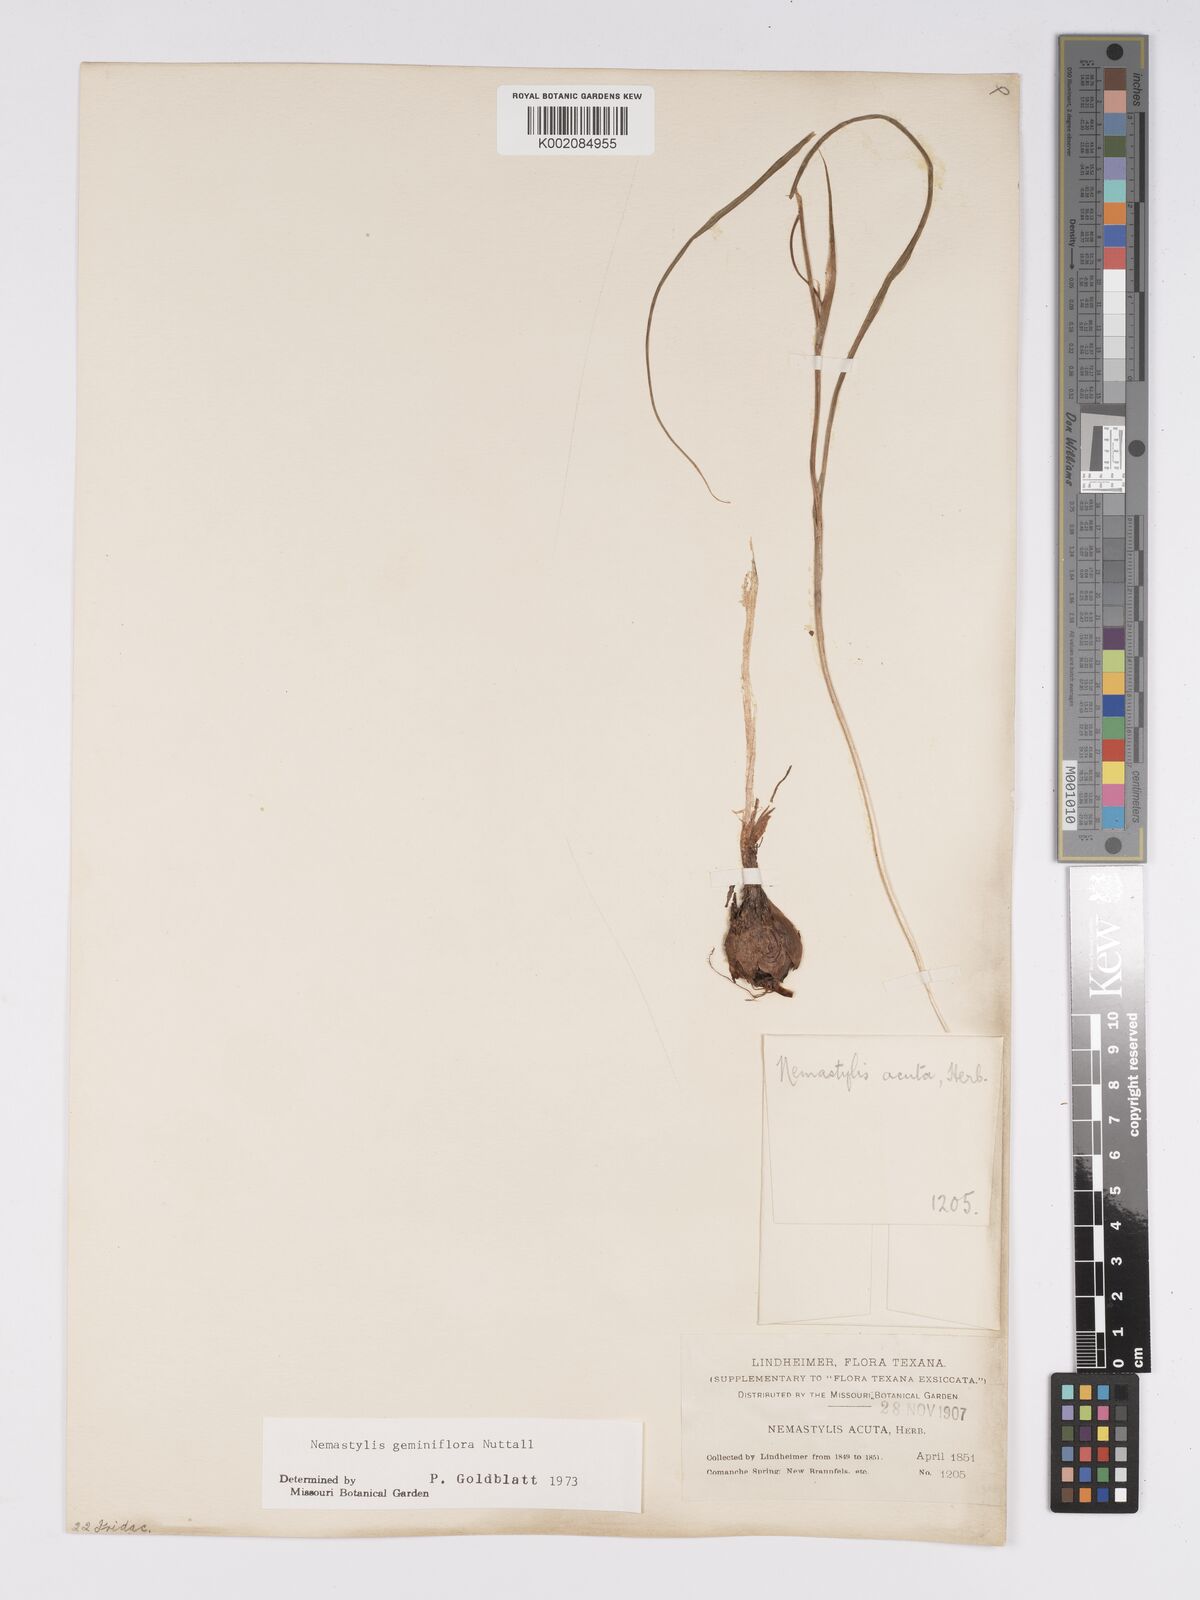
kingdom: Plantae
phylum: Tracheophyta
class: Liliopsida
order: Asparagales
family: Iridaceae
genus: Nemastylis
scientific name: Nemastylis geminiflora
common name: Prairie celestial
